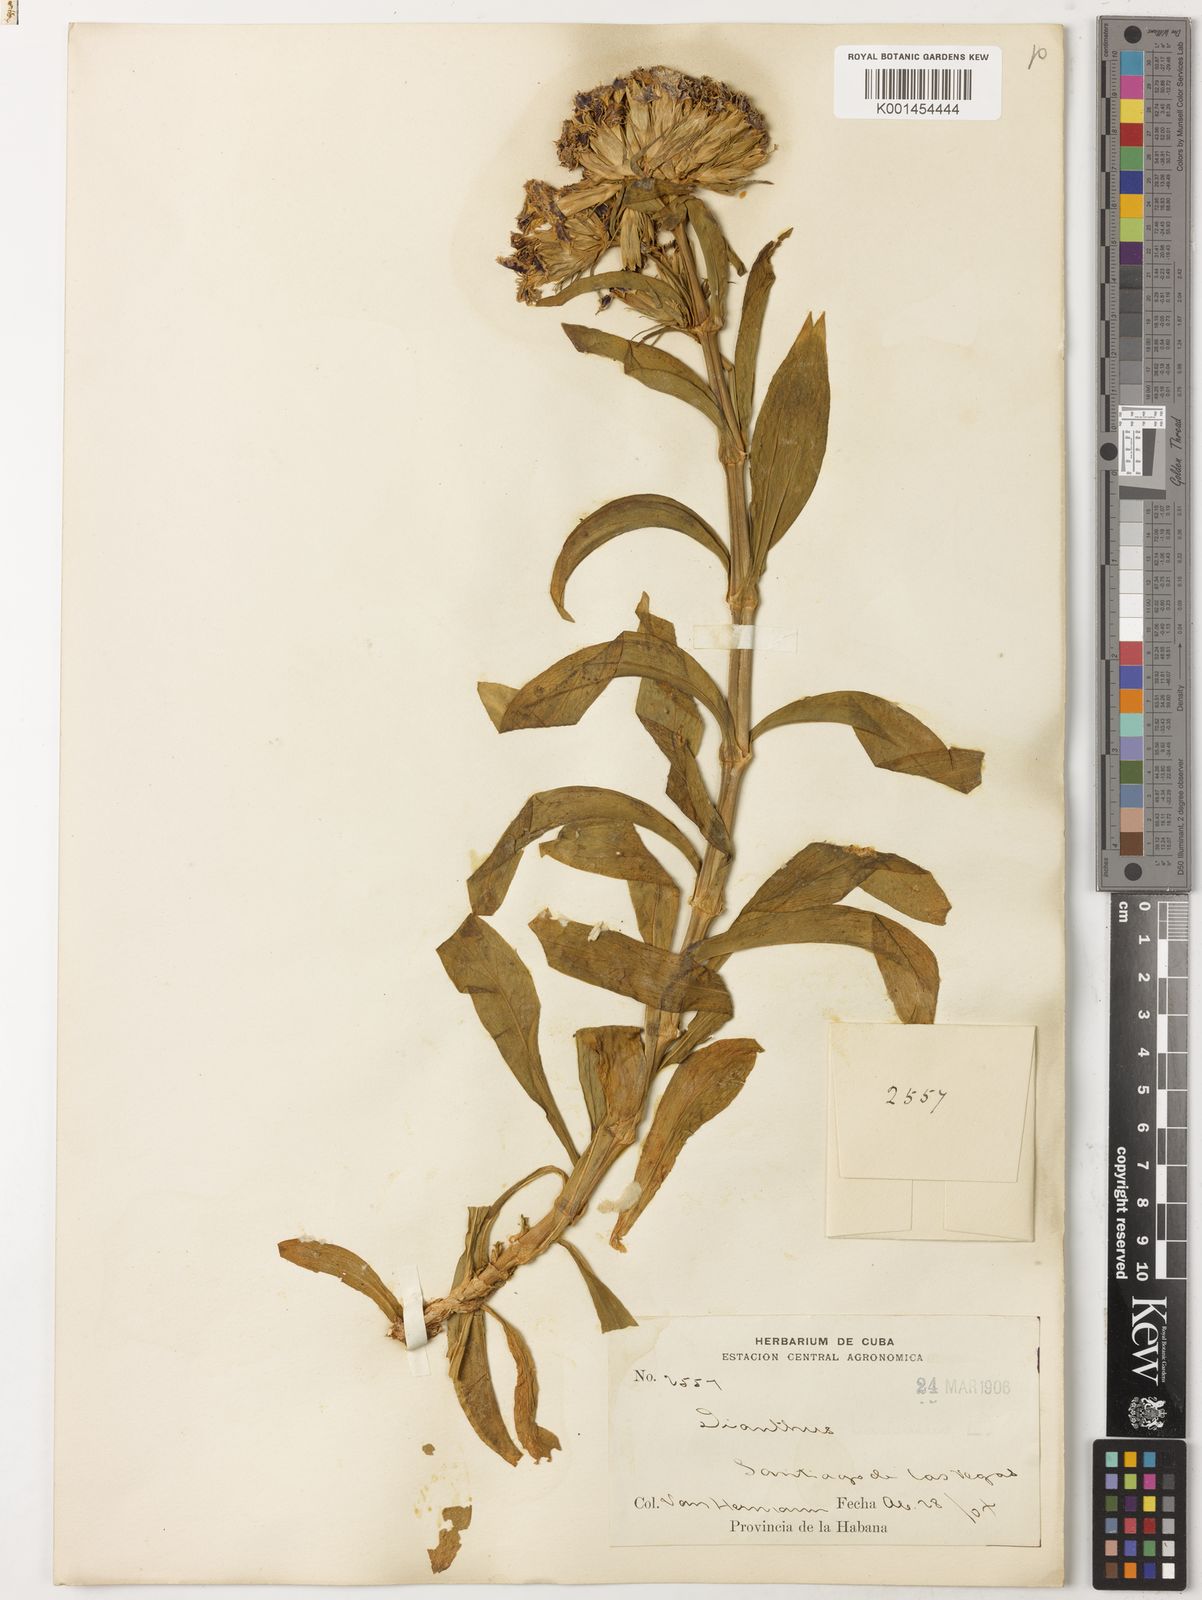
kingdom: Plantae
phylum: Tracheophyta
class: Magnoliopsida
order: Caryophyllales
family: Caryophyllaceae
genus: Dianthus
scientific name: Dianthus barbatus
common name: Sweet-william
